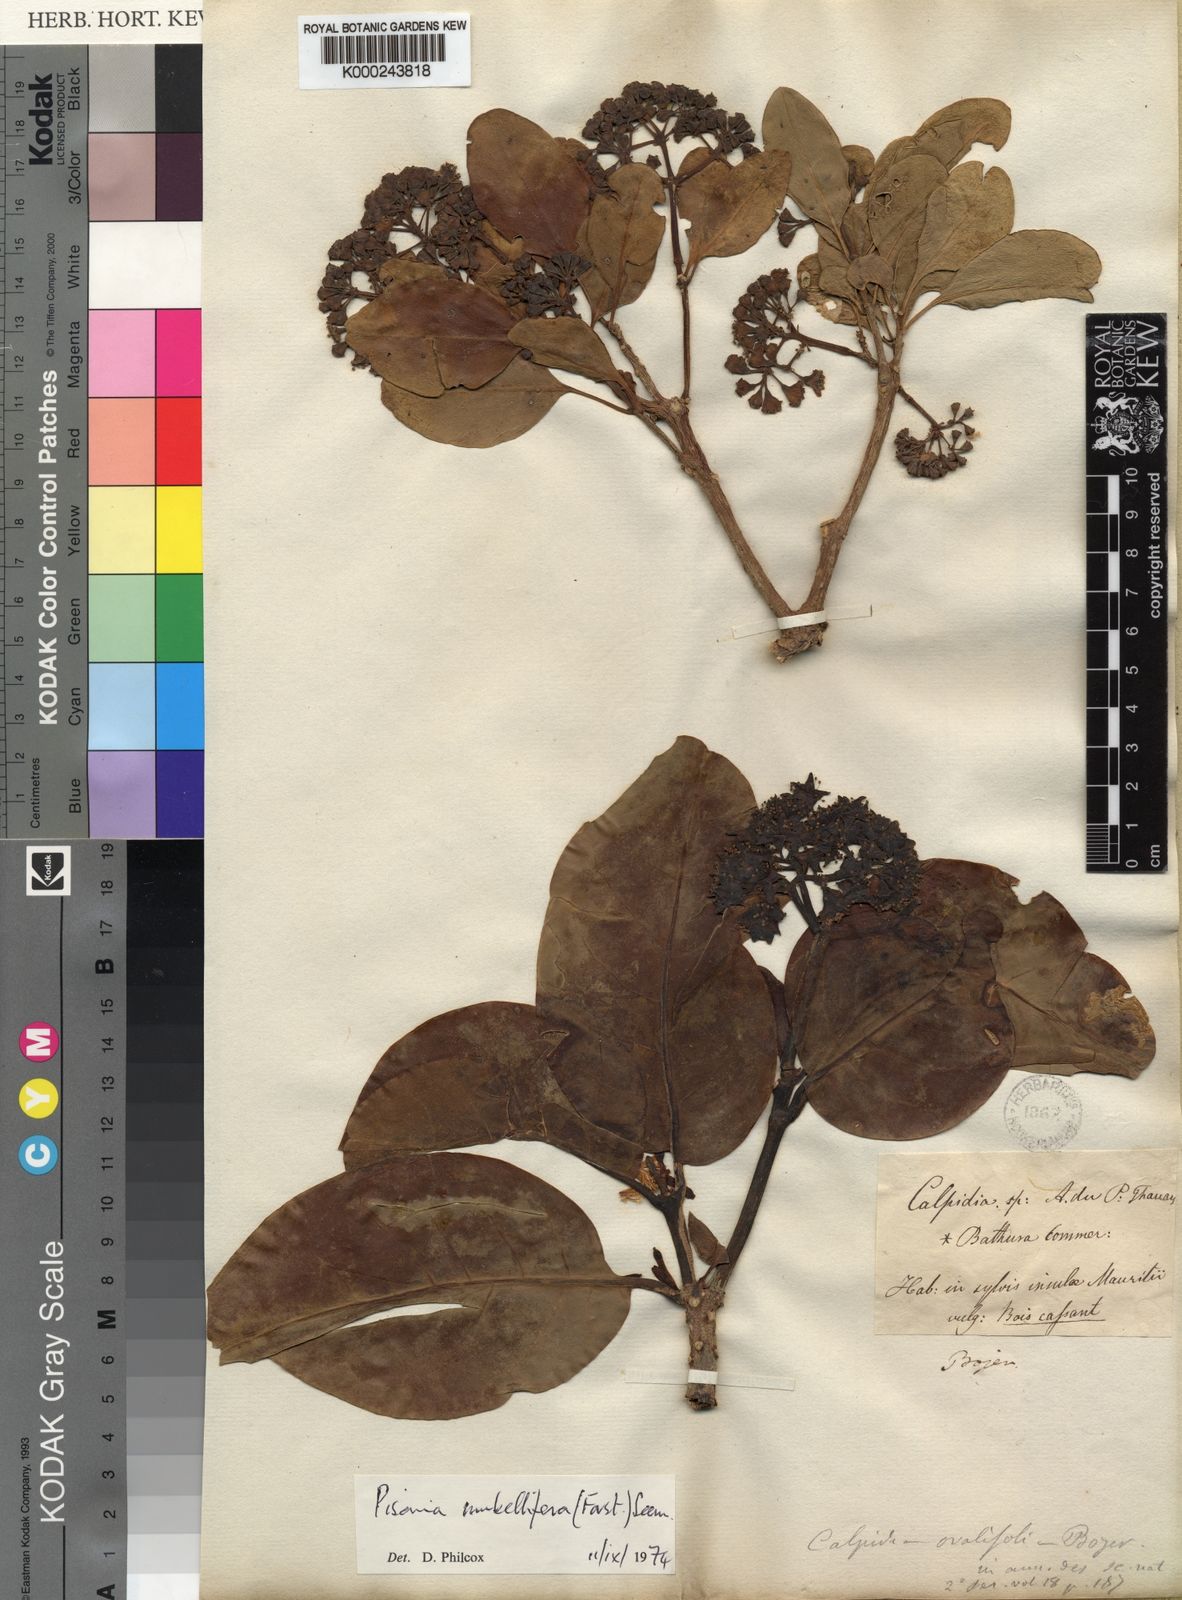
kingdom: Plantae
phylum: Tracheophyta
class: Magnoliopsida
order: Caryophyllales
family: Nyctaginaceae
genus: Ceodes
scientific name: Ceodes umbellifera
